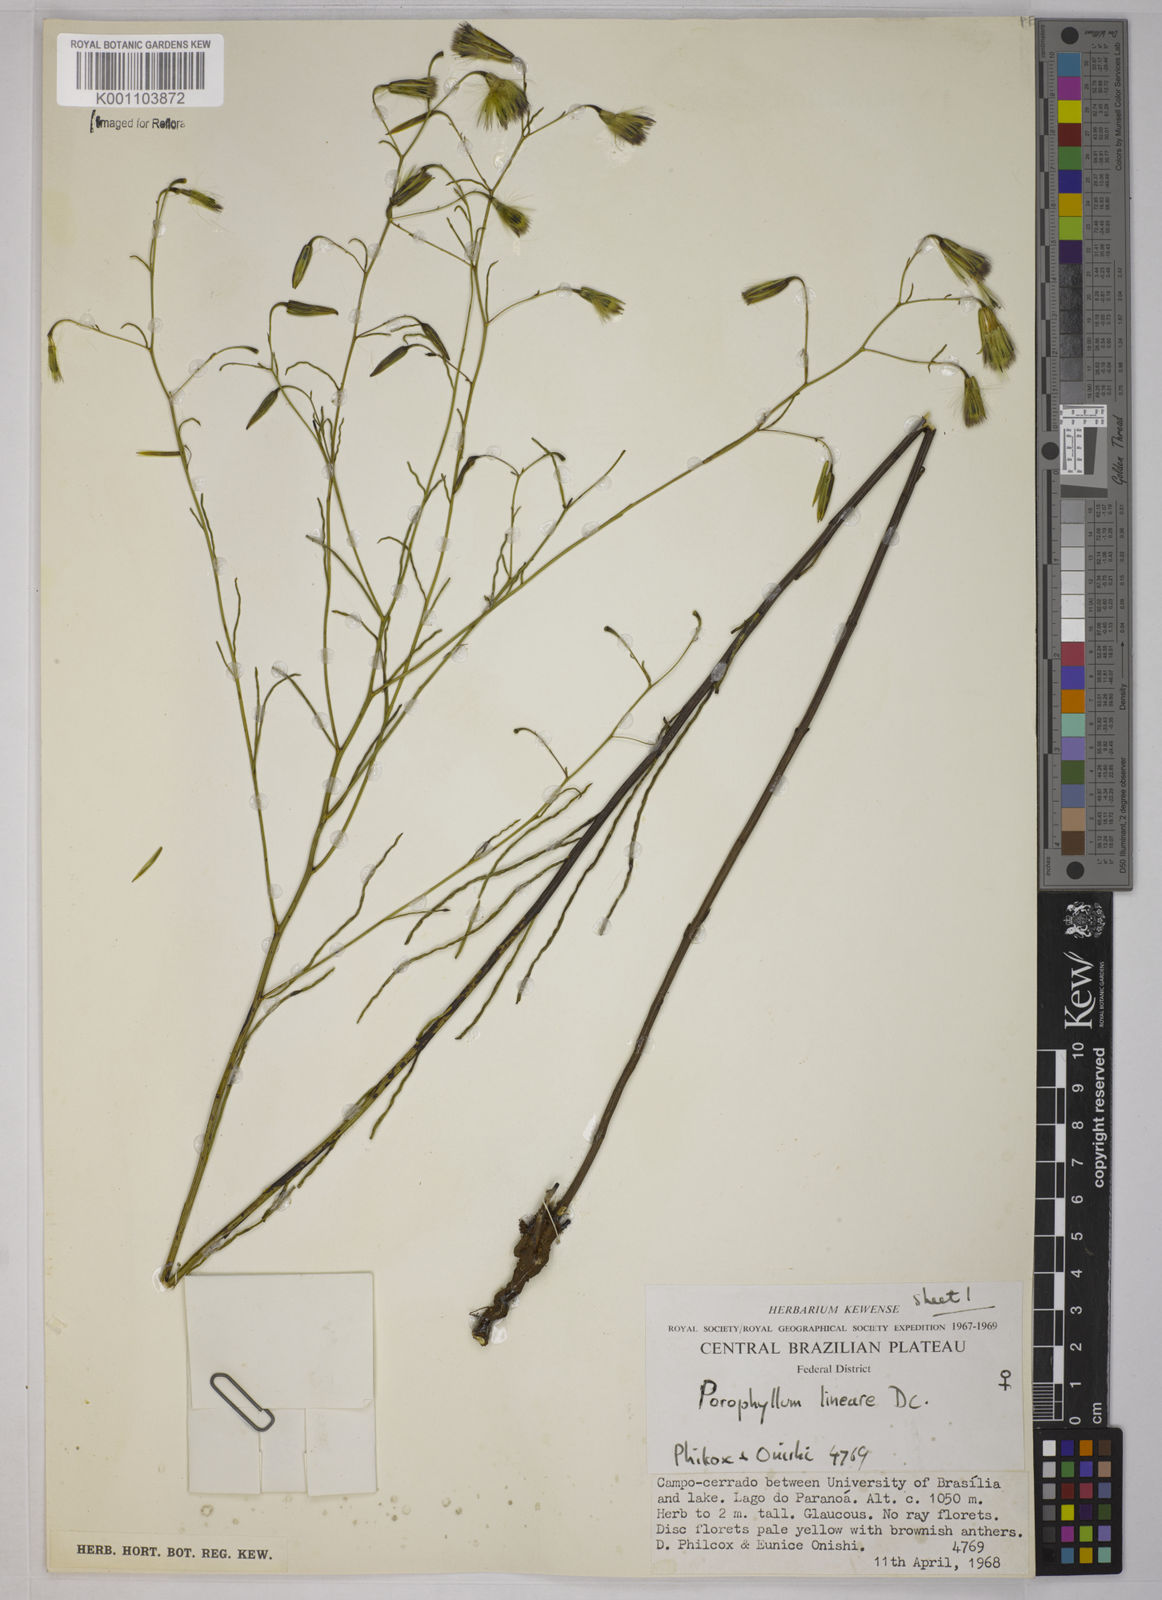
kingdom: Plantae
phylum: Tracheophyta
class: Magnoliopsida
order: Asterales
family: Asteraceae
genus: Porophyllum
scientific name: Porophyllum obscurum
